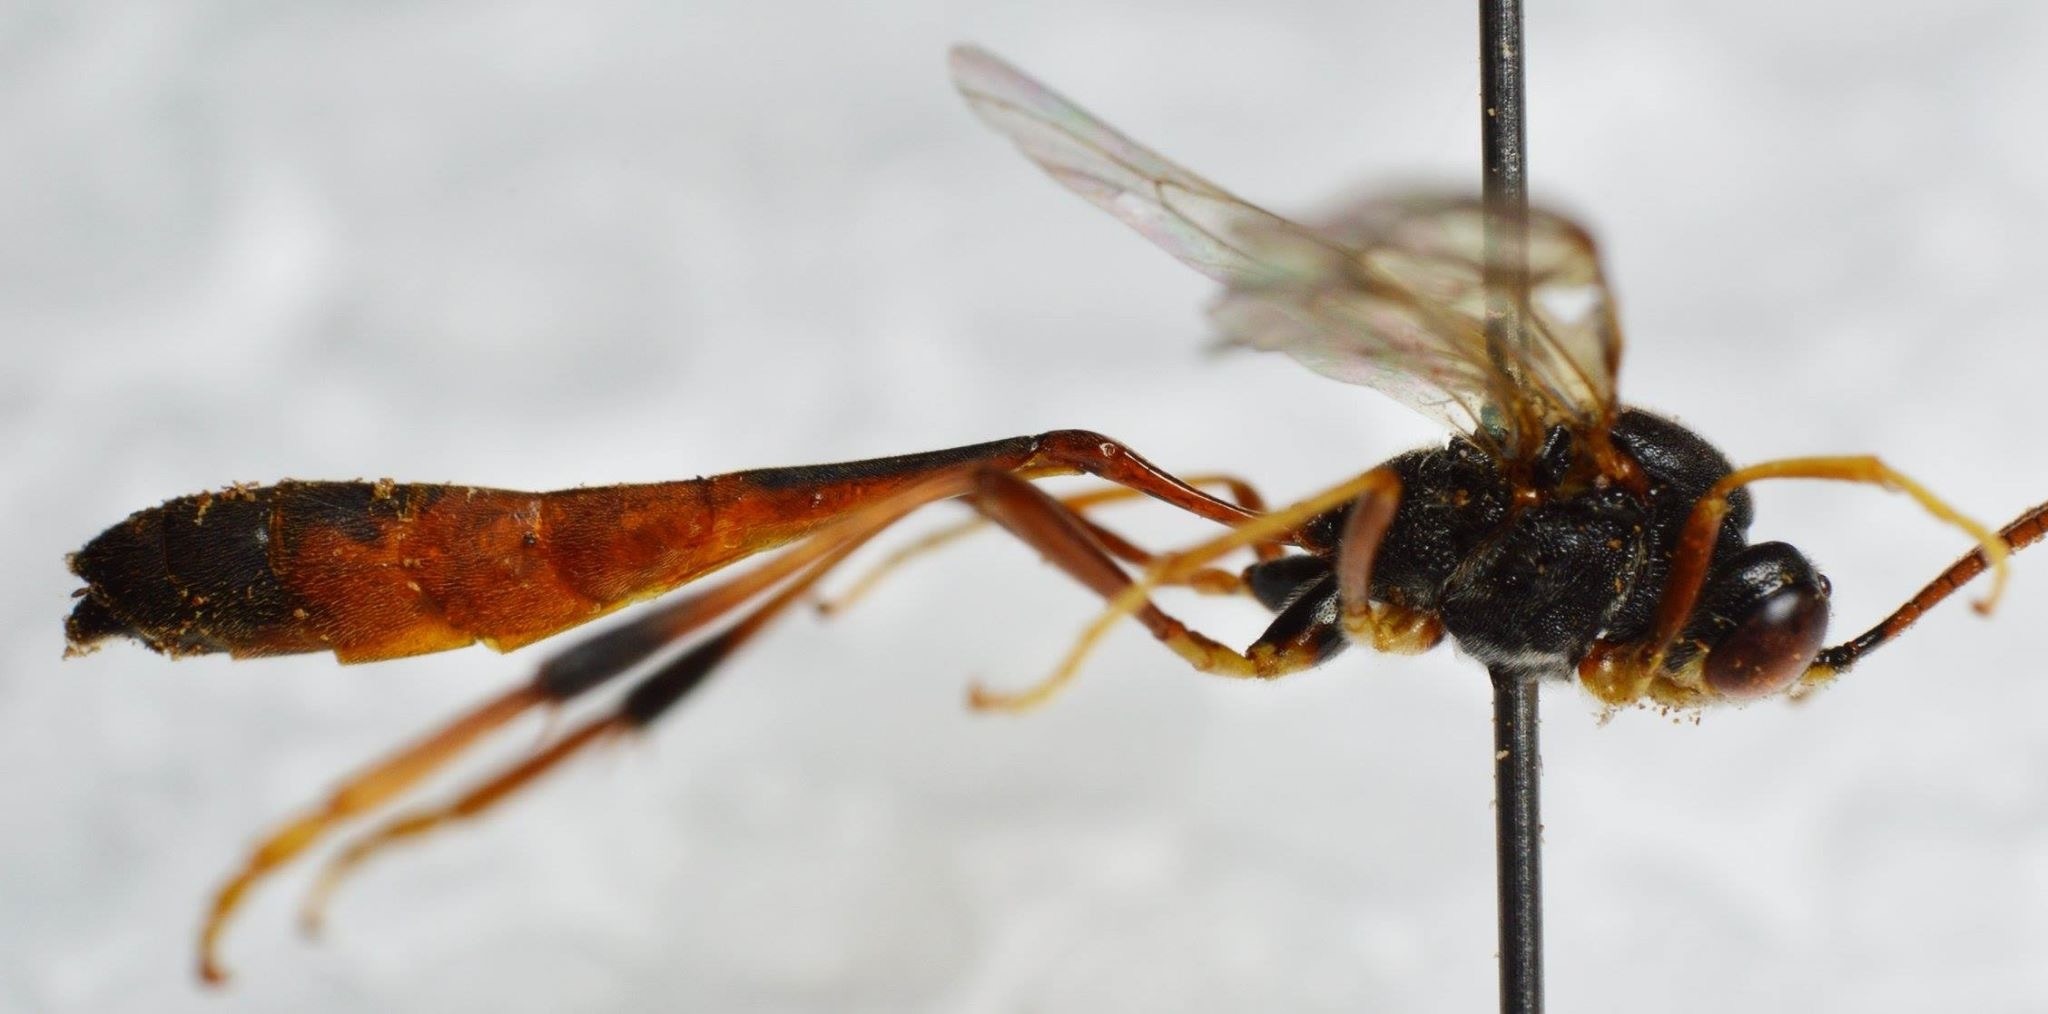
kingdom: Animalia
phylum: Arthropoda
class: Insecta
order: Hymenoptera
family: Ichneumonidae
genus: Aphanistes
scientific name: Aphanistes gliscens
